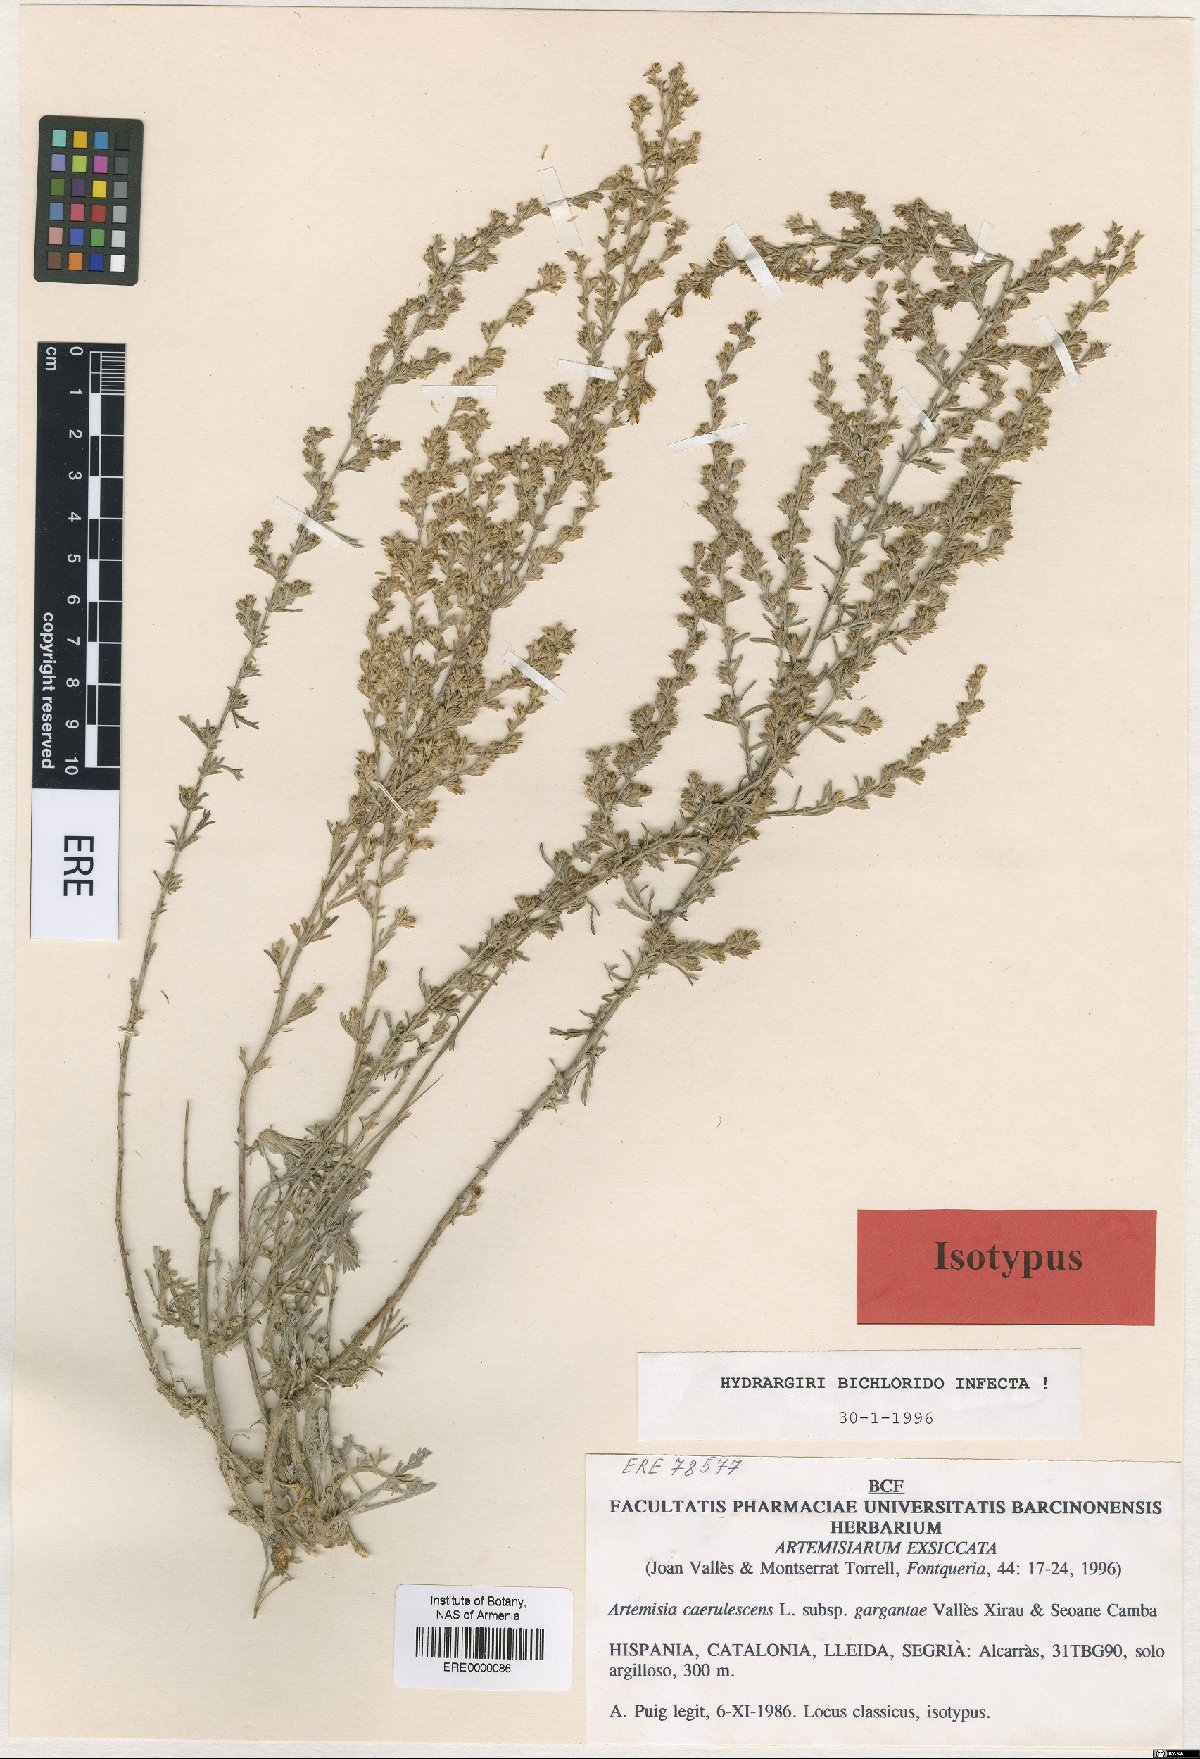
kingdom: Plantae
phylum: Tracheophyta
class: Magnoliopsida
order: Asterales
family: Asteraceae
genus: Artemisia
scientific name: Artemisia caerulescens
